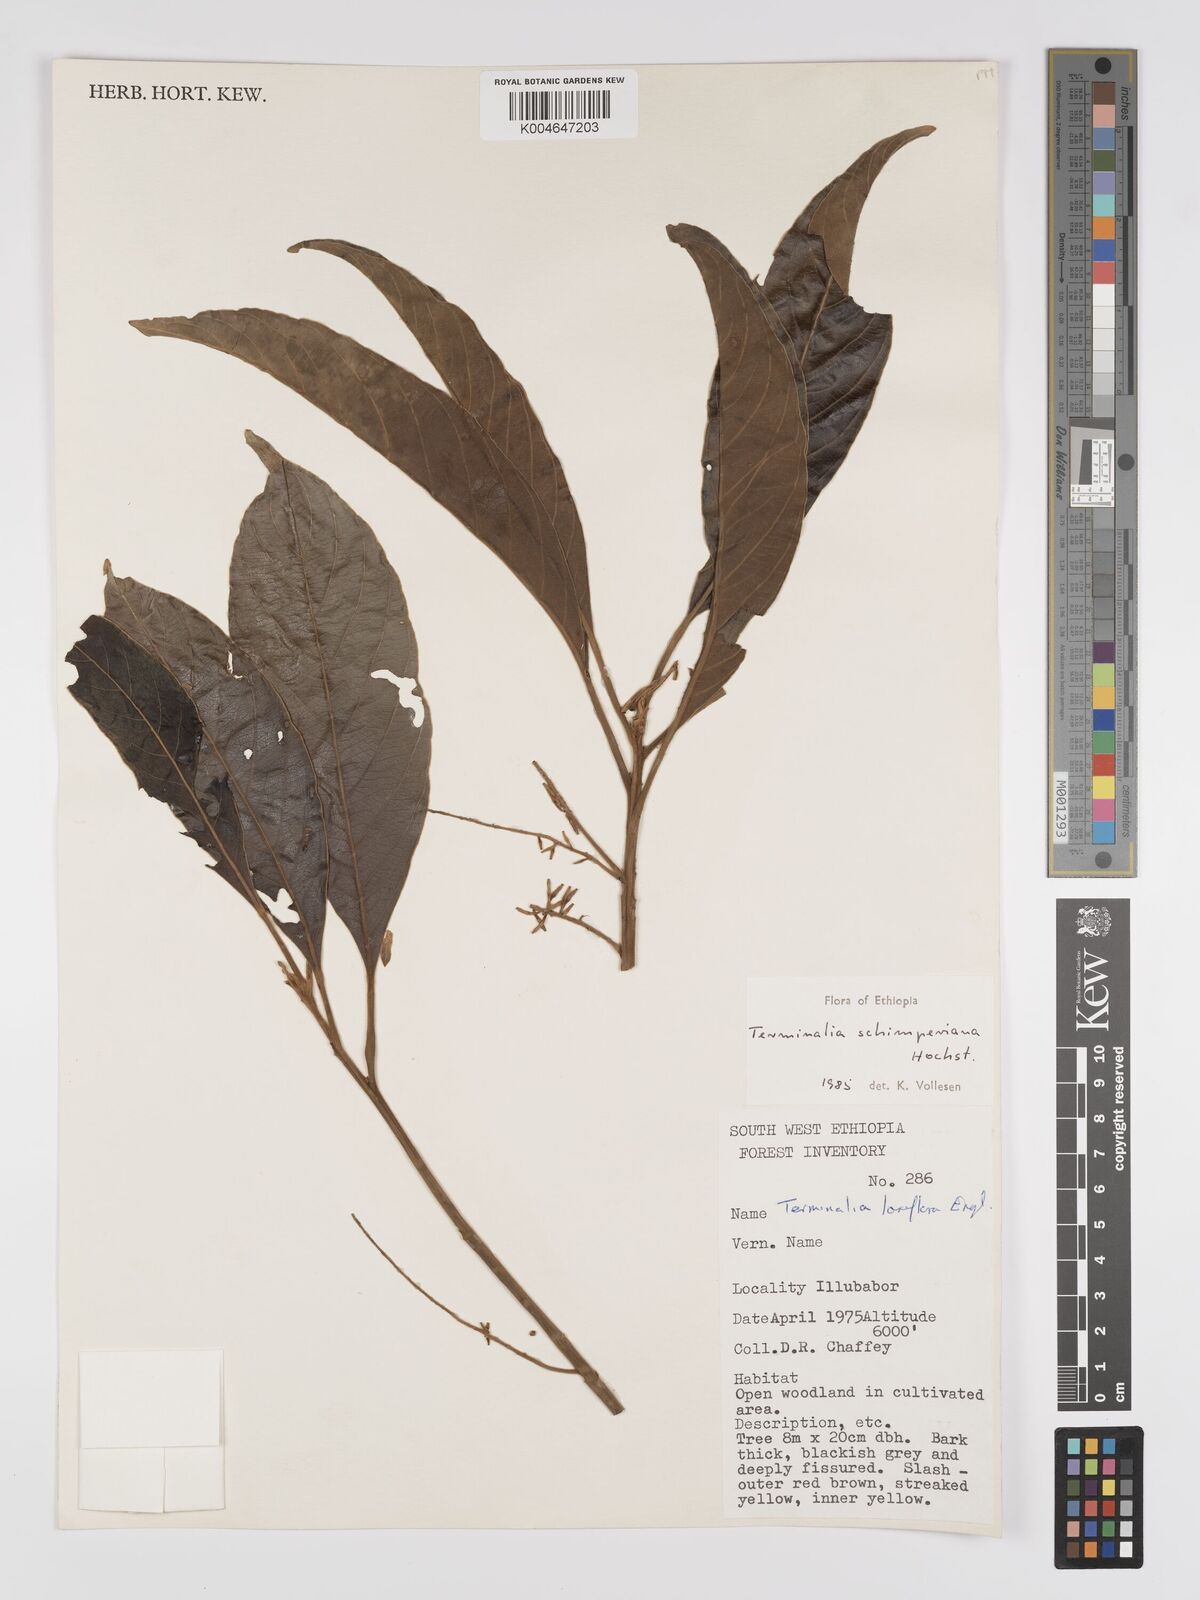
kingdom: Plantae
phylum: Tracheophyta
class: Magnoliopsida
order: Myrtales
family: Combretaceae
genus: Terminalia
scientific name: Terminalia schimperiana
